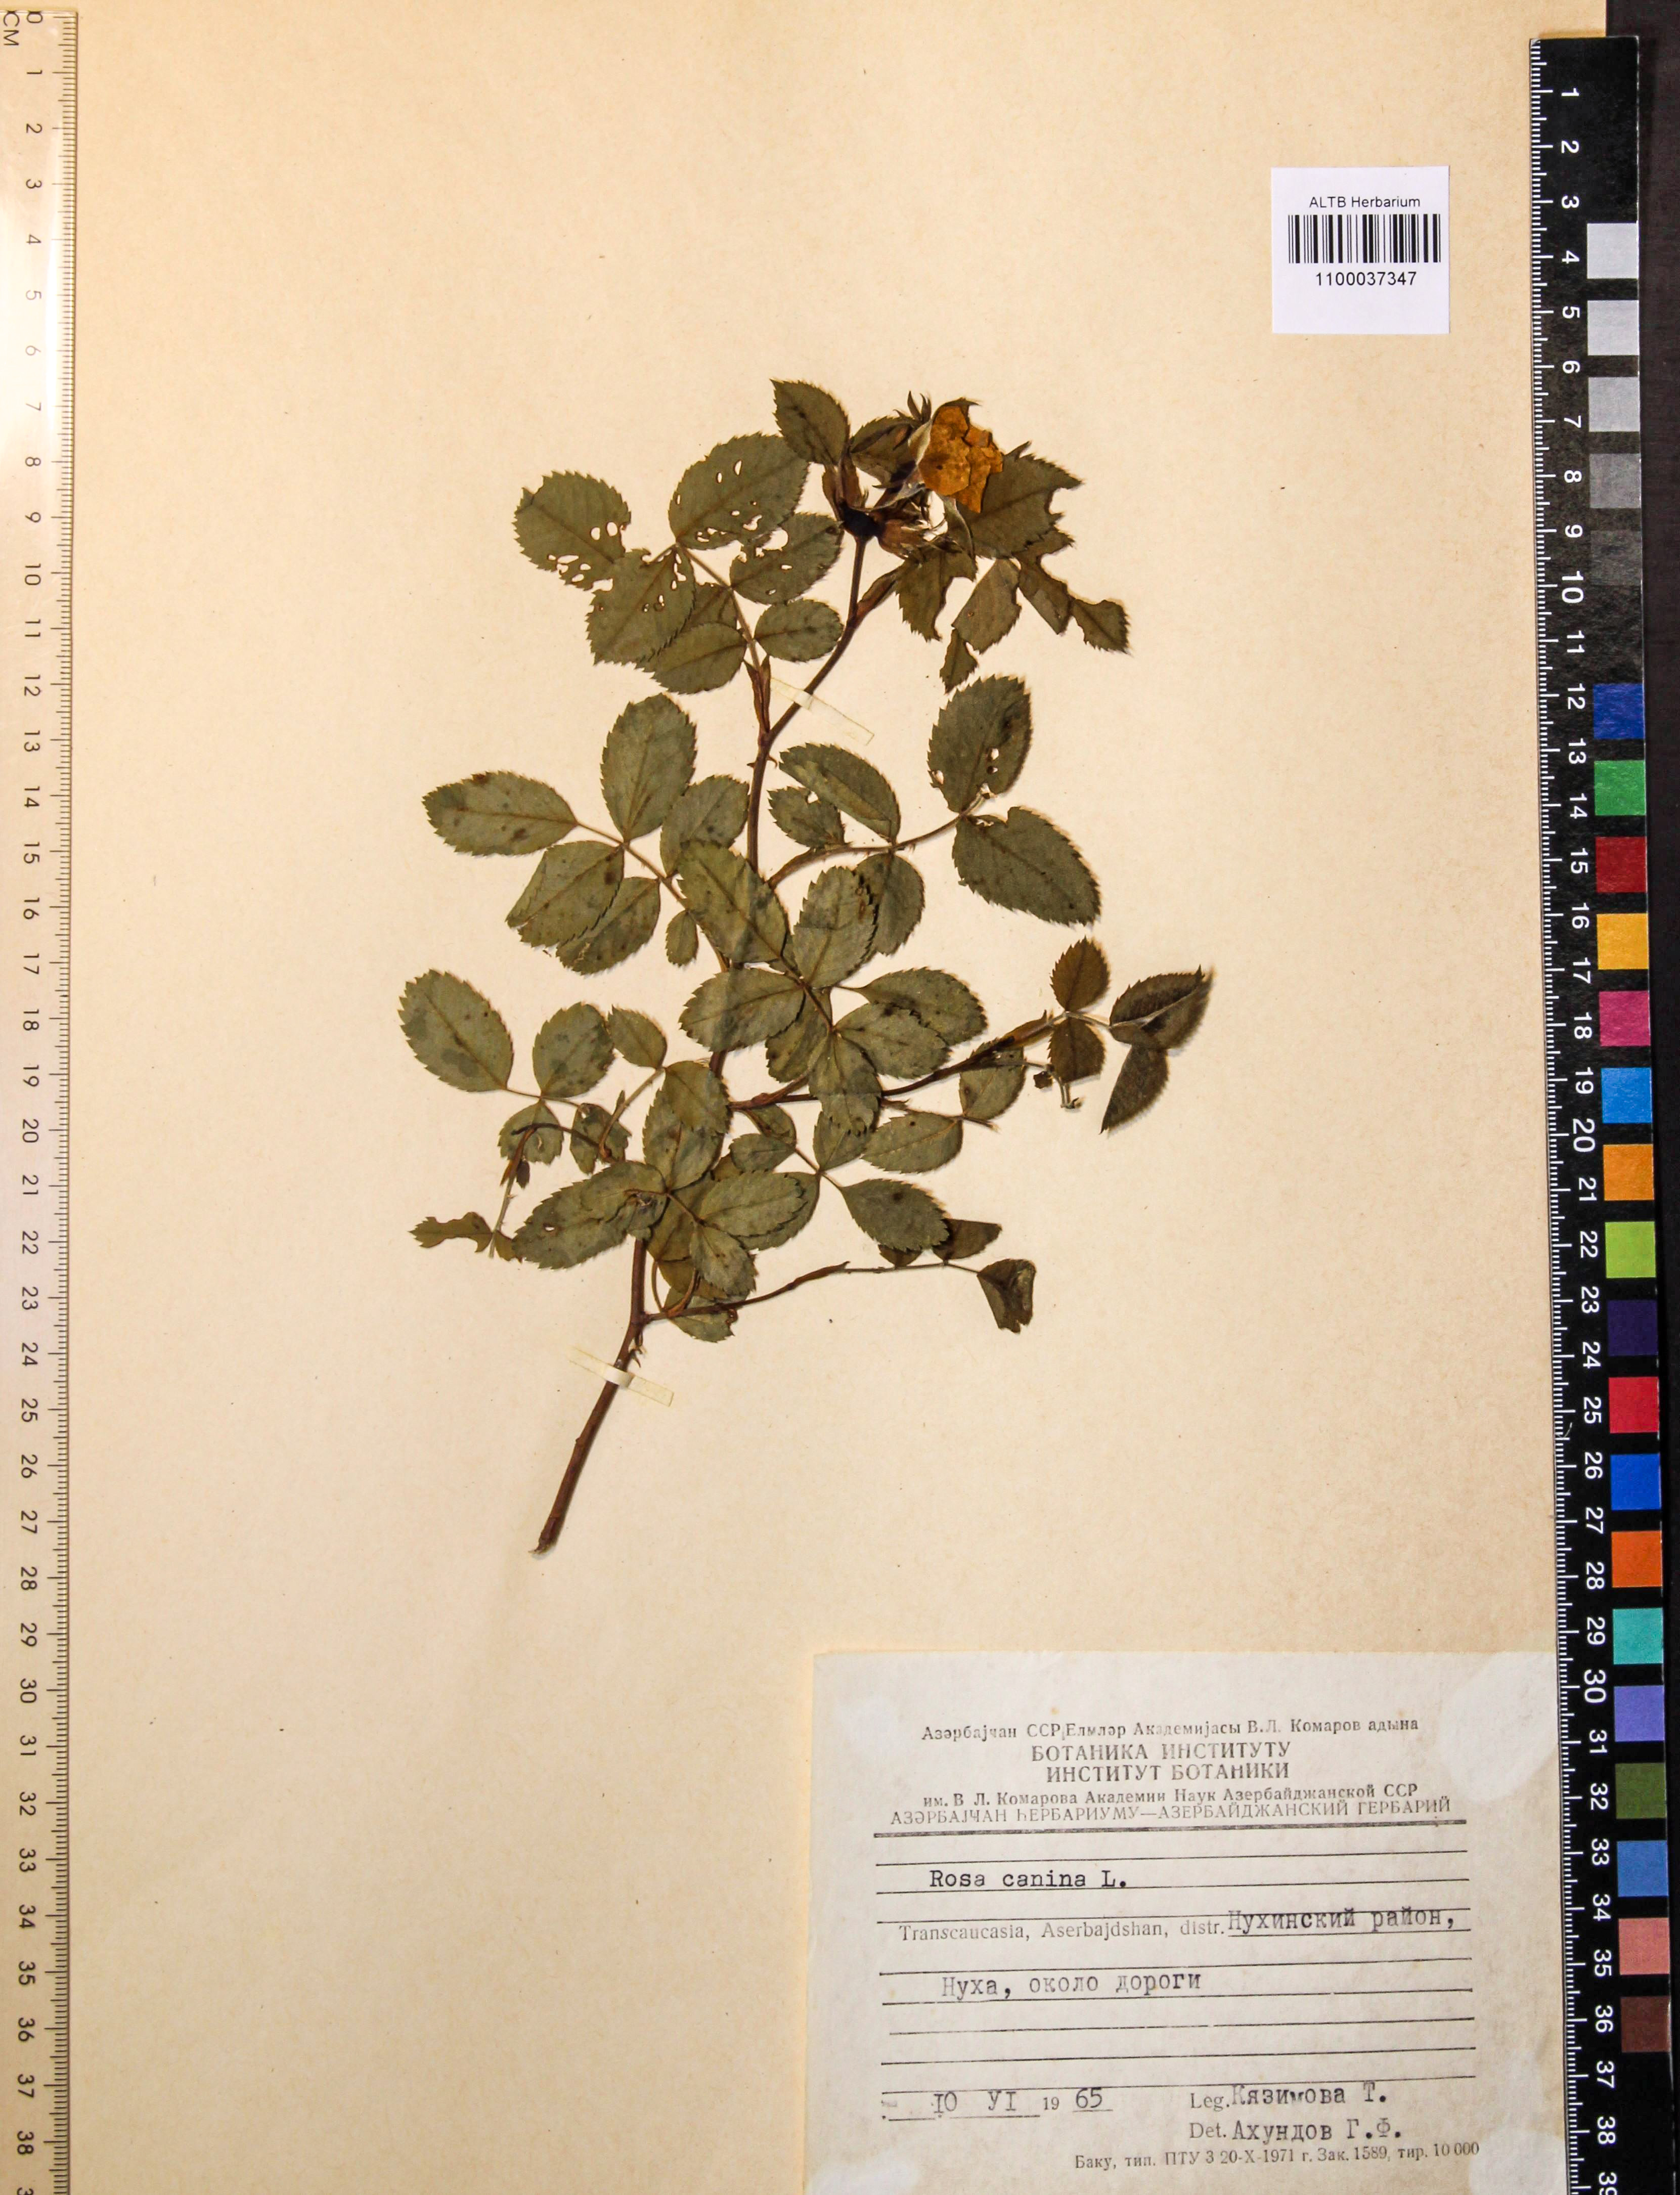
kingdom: Plantae
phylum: Tracheophyta
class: Magnoliopsida
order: Rosales
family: Rosaceae
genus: Rosa
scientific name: Rosa canina
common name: Dog rose
